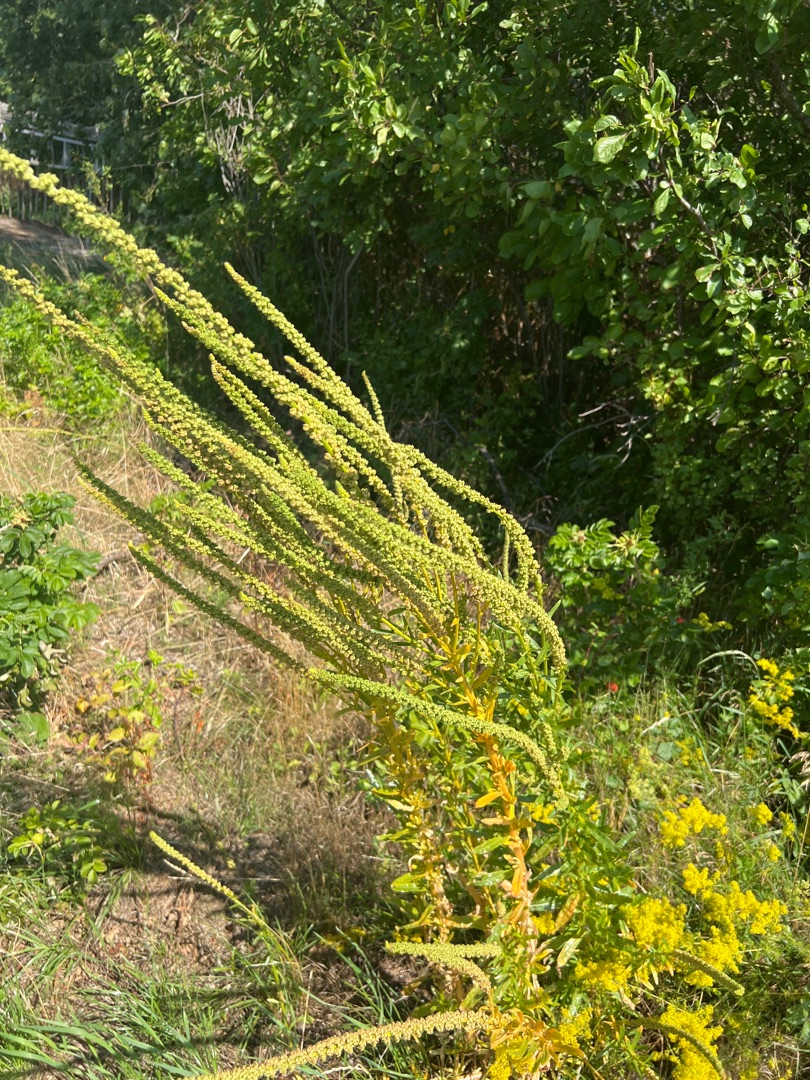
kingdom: Plantae
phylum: Tracheophyta
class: Magnoliopsida
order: Brassicales
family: Resedaceae
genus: Reseda
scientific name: Reseda luteola
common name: Farve-reseda
